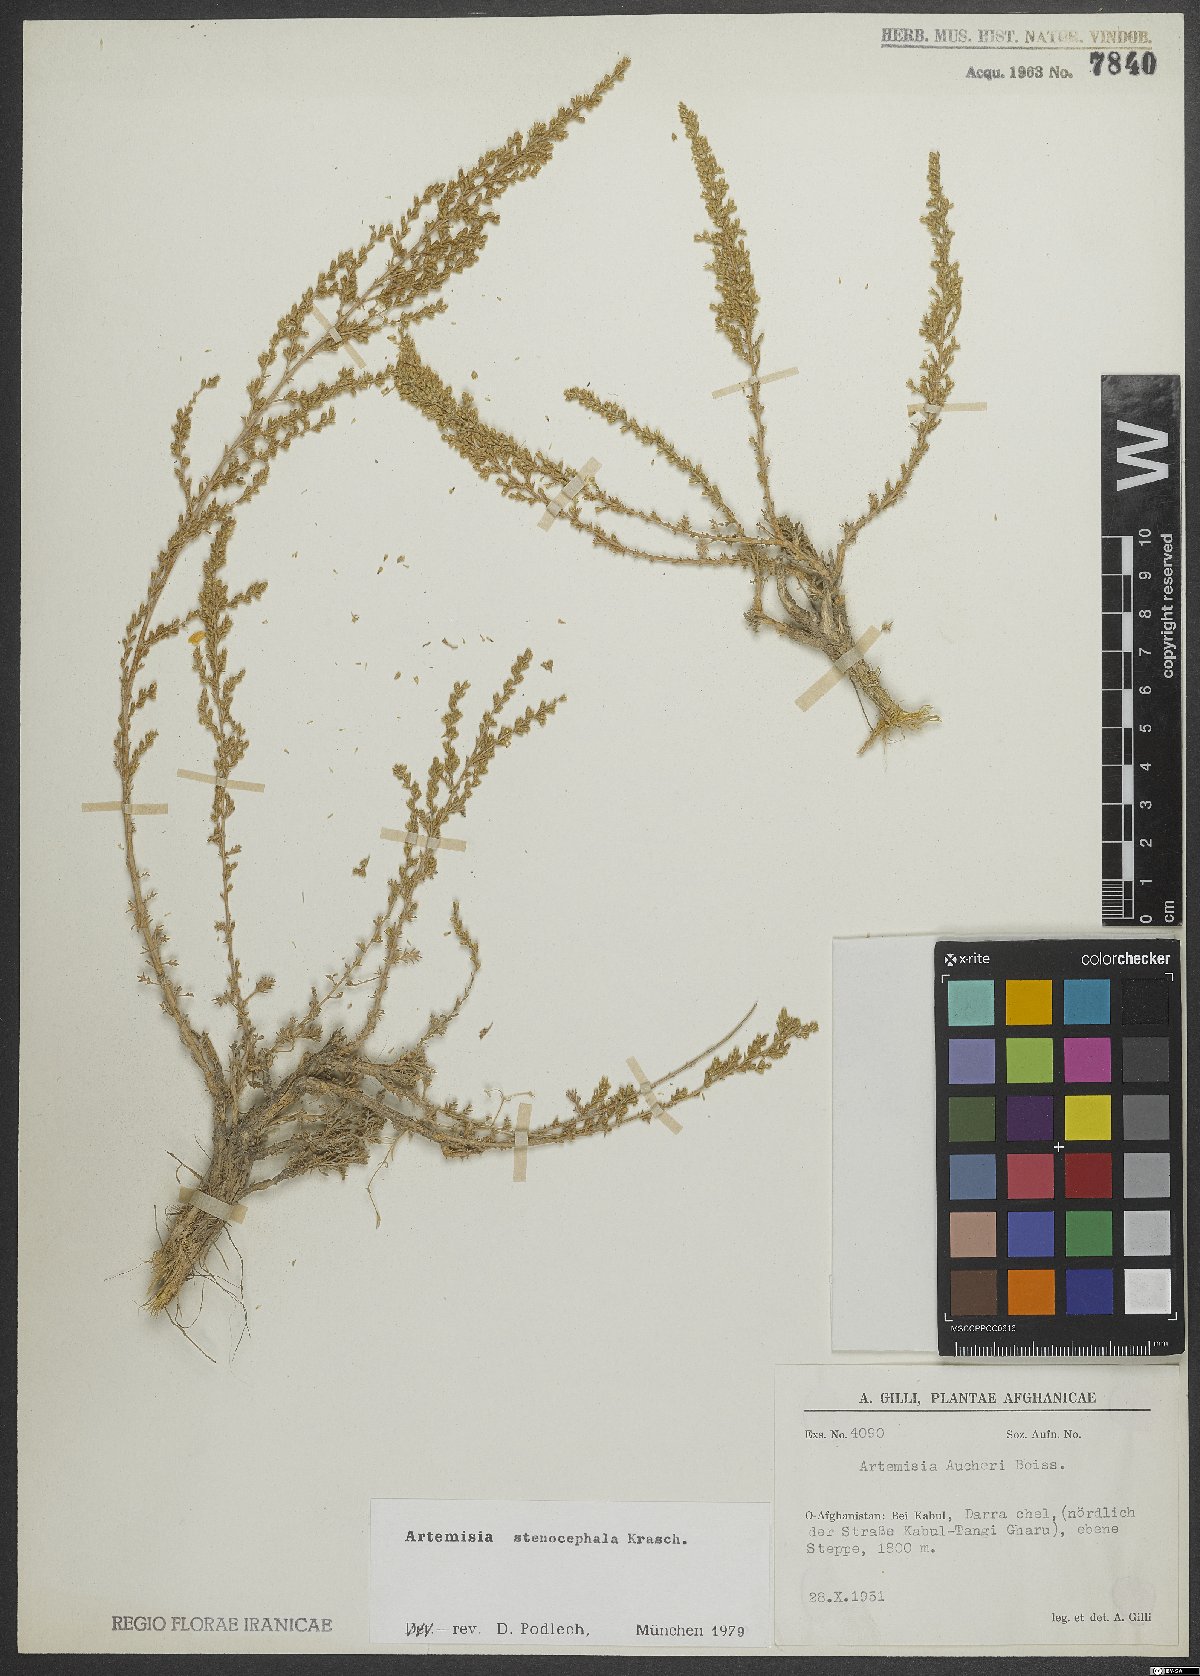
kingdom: Plantae
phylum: Tracheophyta
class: Magnoliopsida
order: Asterales
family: Asteraceae
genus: Artemisia
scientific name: Artemisia stenocephala
